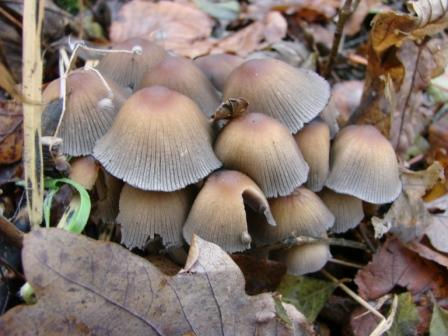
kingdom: Fungi
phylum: Basidiomycota
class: Agaricomycetes
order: Agaricales
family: Psathyrellaceae
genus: Coprinellus
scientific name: Coprinellus micaceus
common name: glimmer-blækhat
